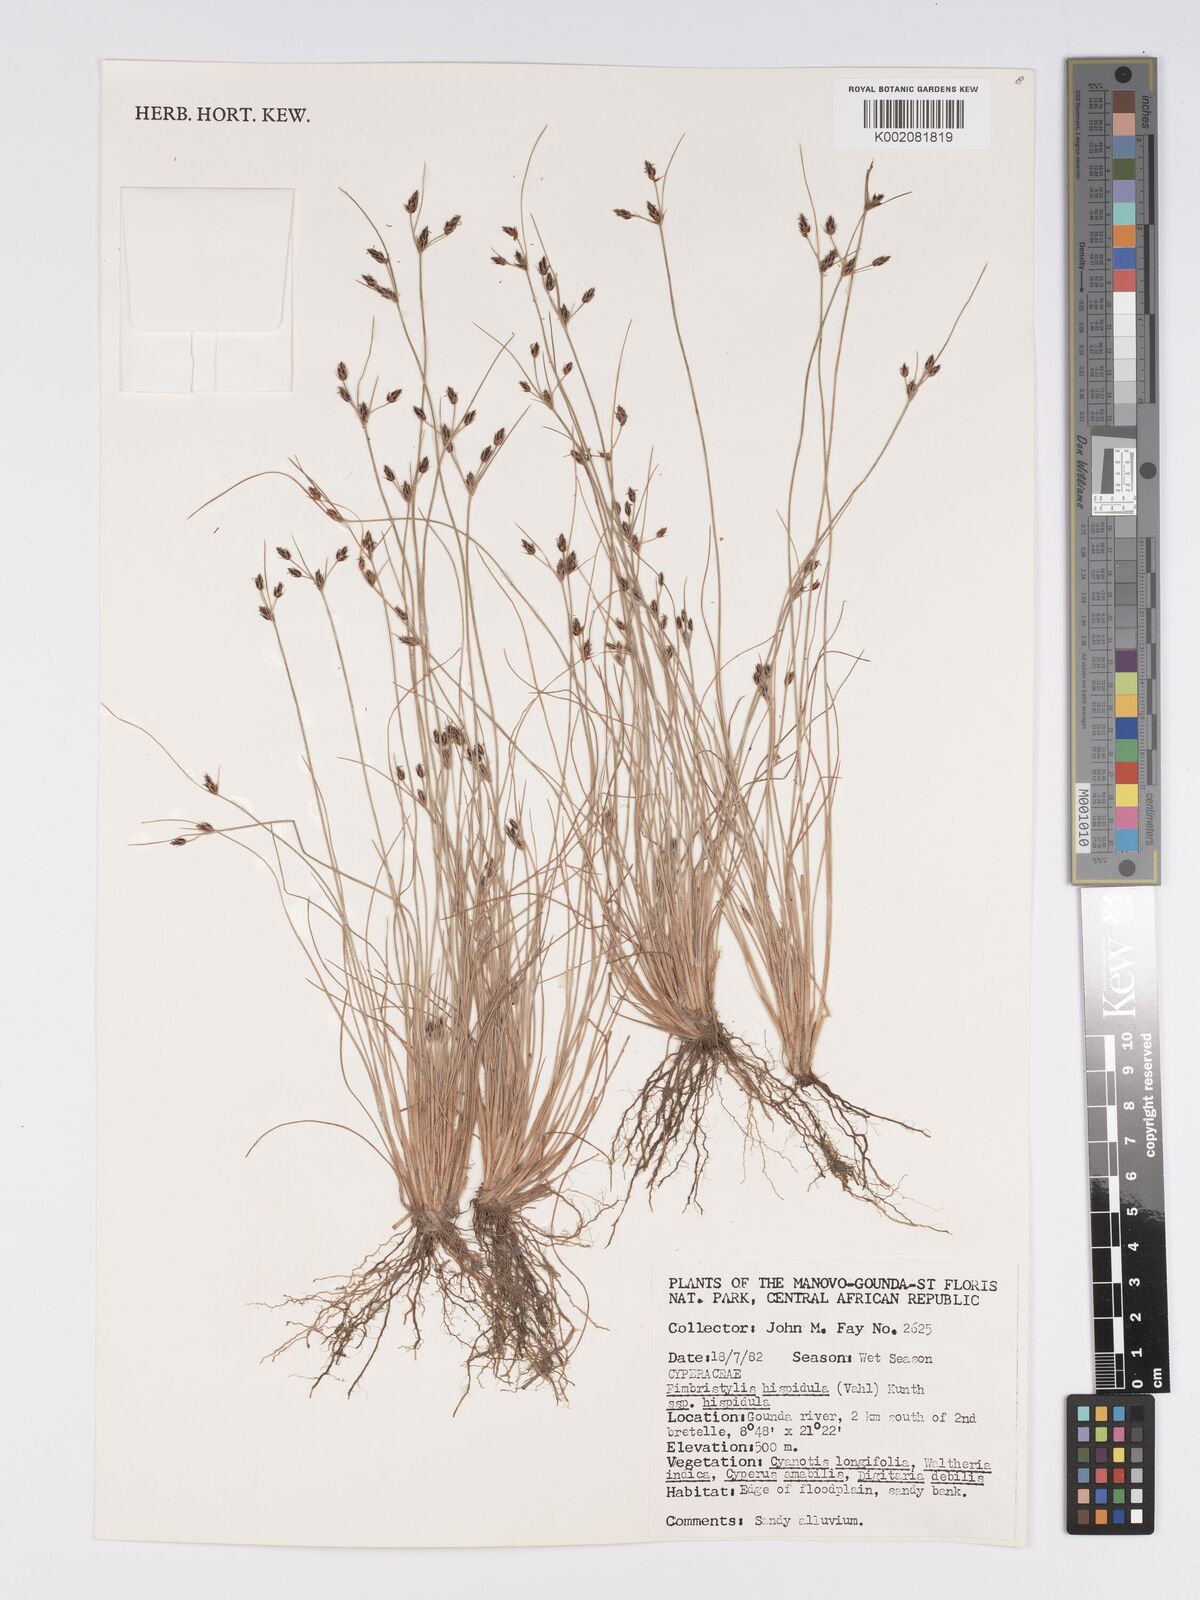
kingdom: Plantae
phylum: Tracheophyta
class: Liliopsida
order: Poales
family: Cyperaceae
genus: Bulbostylis
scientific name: Bulbostylis hispidula
